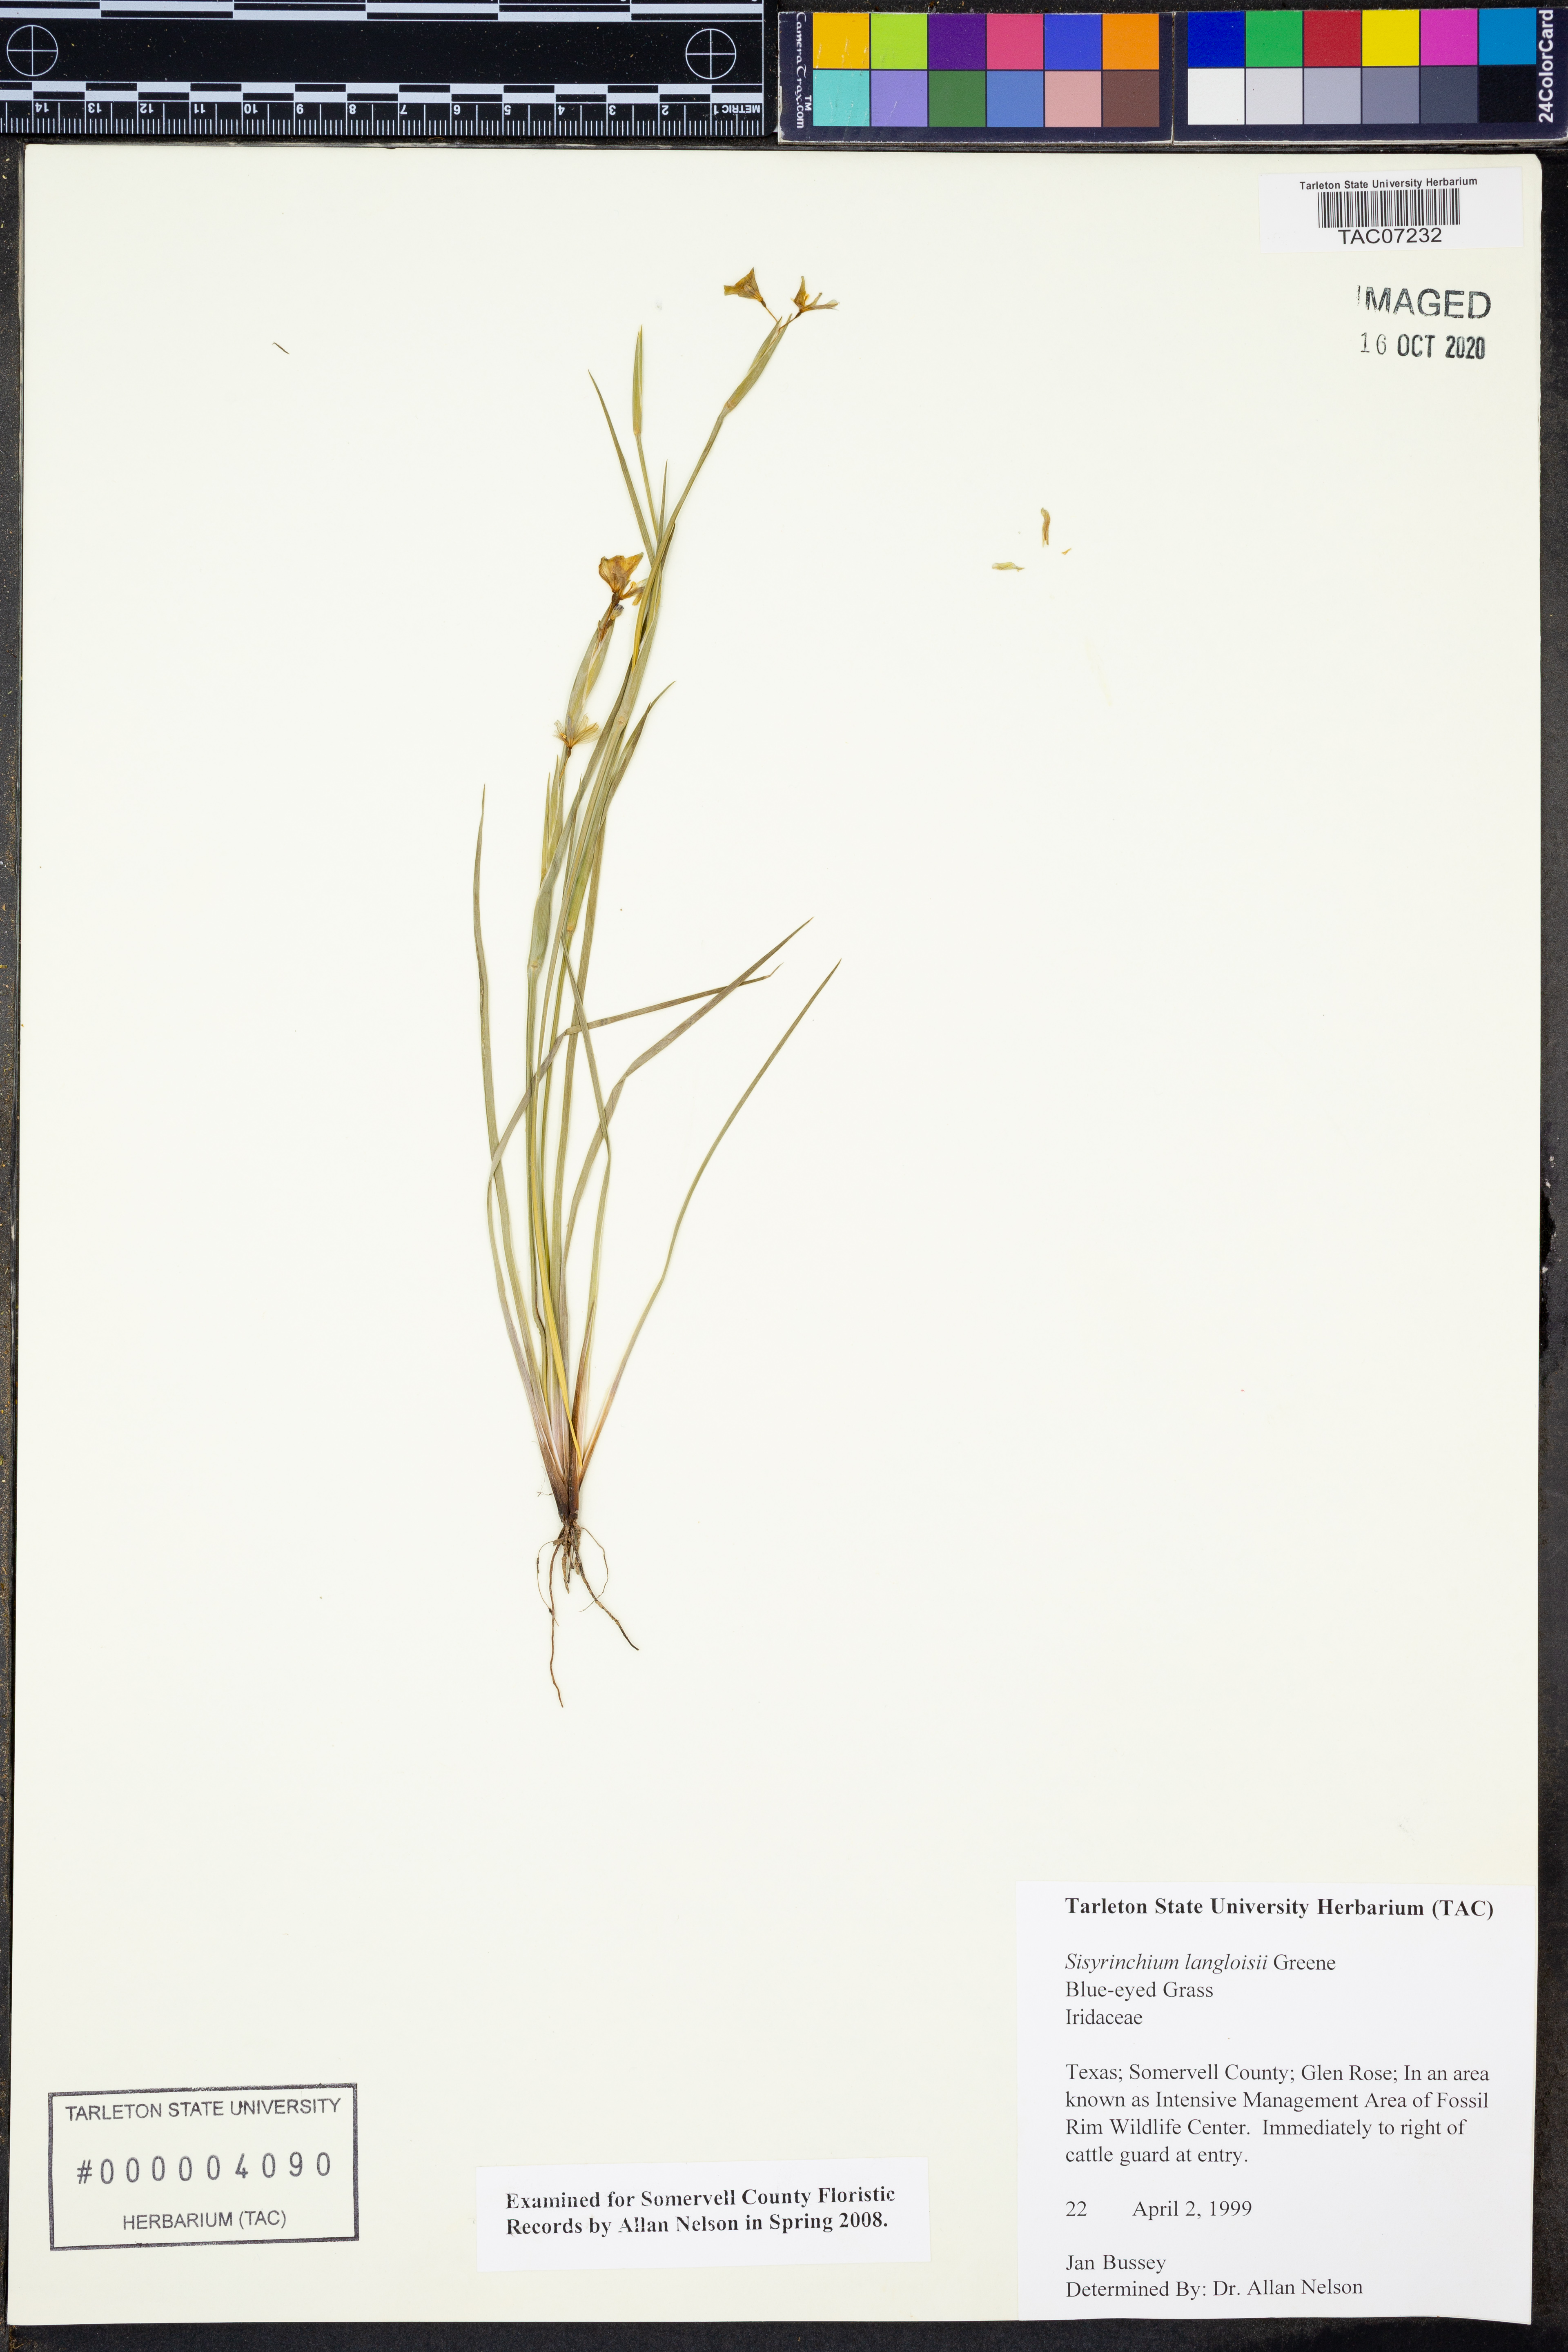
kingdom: Plantae
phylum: Tracheophyta
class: Liliopsida
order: Asparagales
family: Iridaceae
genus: Sisyrinchium
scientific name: Sisyrinchium langloisii
